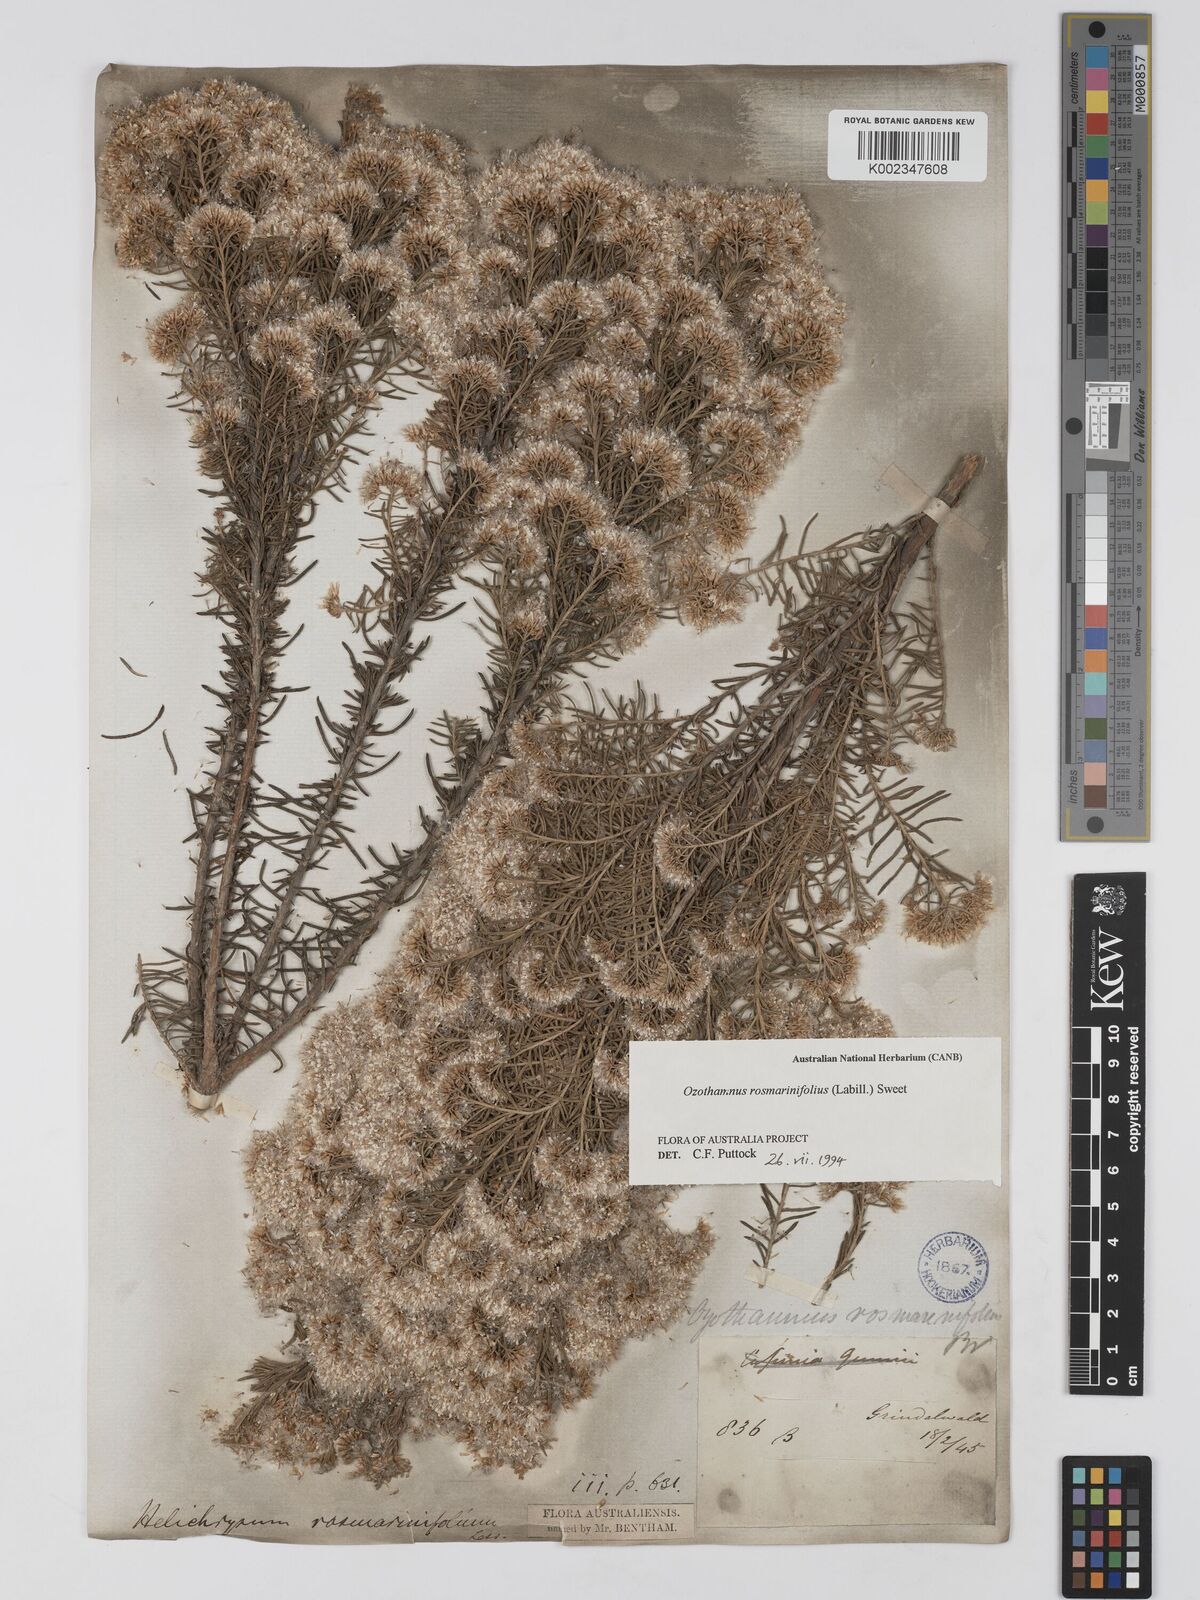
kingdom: Plantae
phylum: Tracheophyta
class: Magnoliopsida
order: Asterales
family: Asteraceae
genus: Ozothamnus
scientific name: Ozothamnus rosmarinifolius
